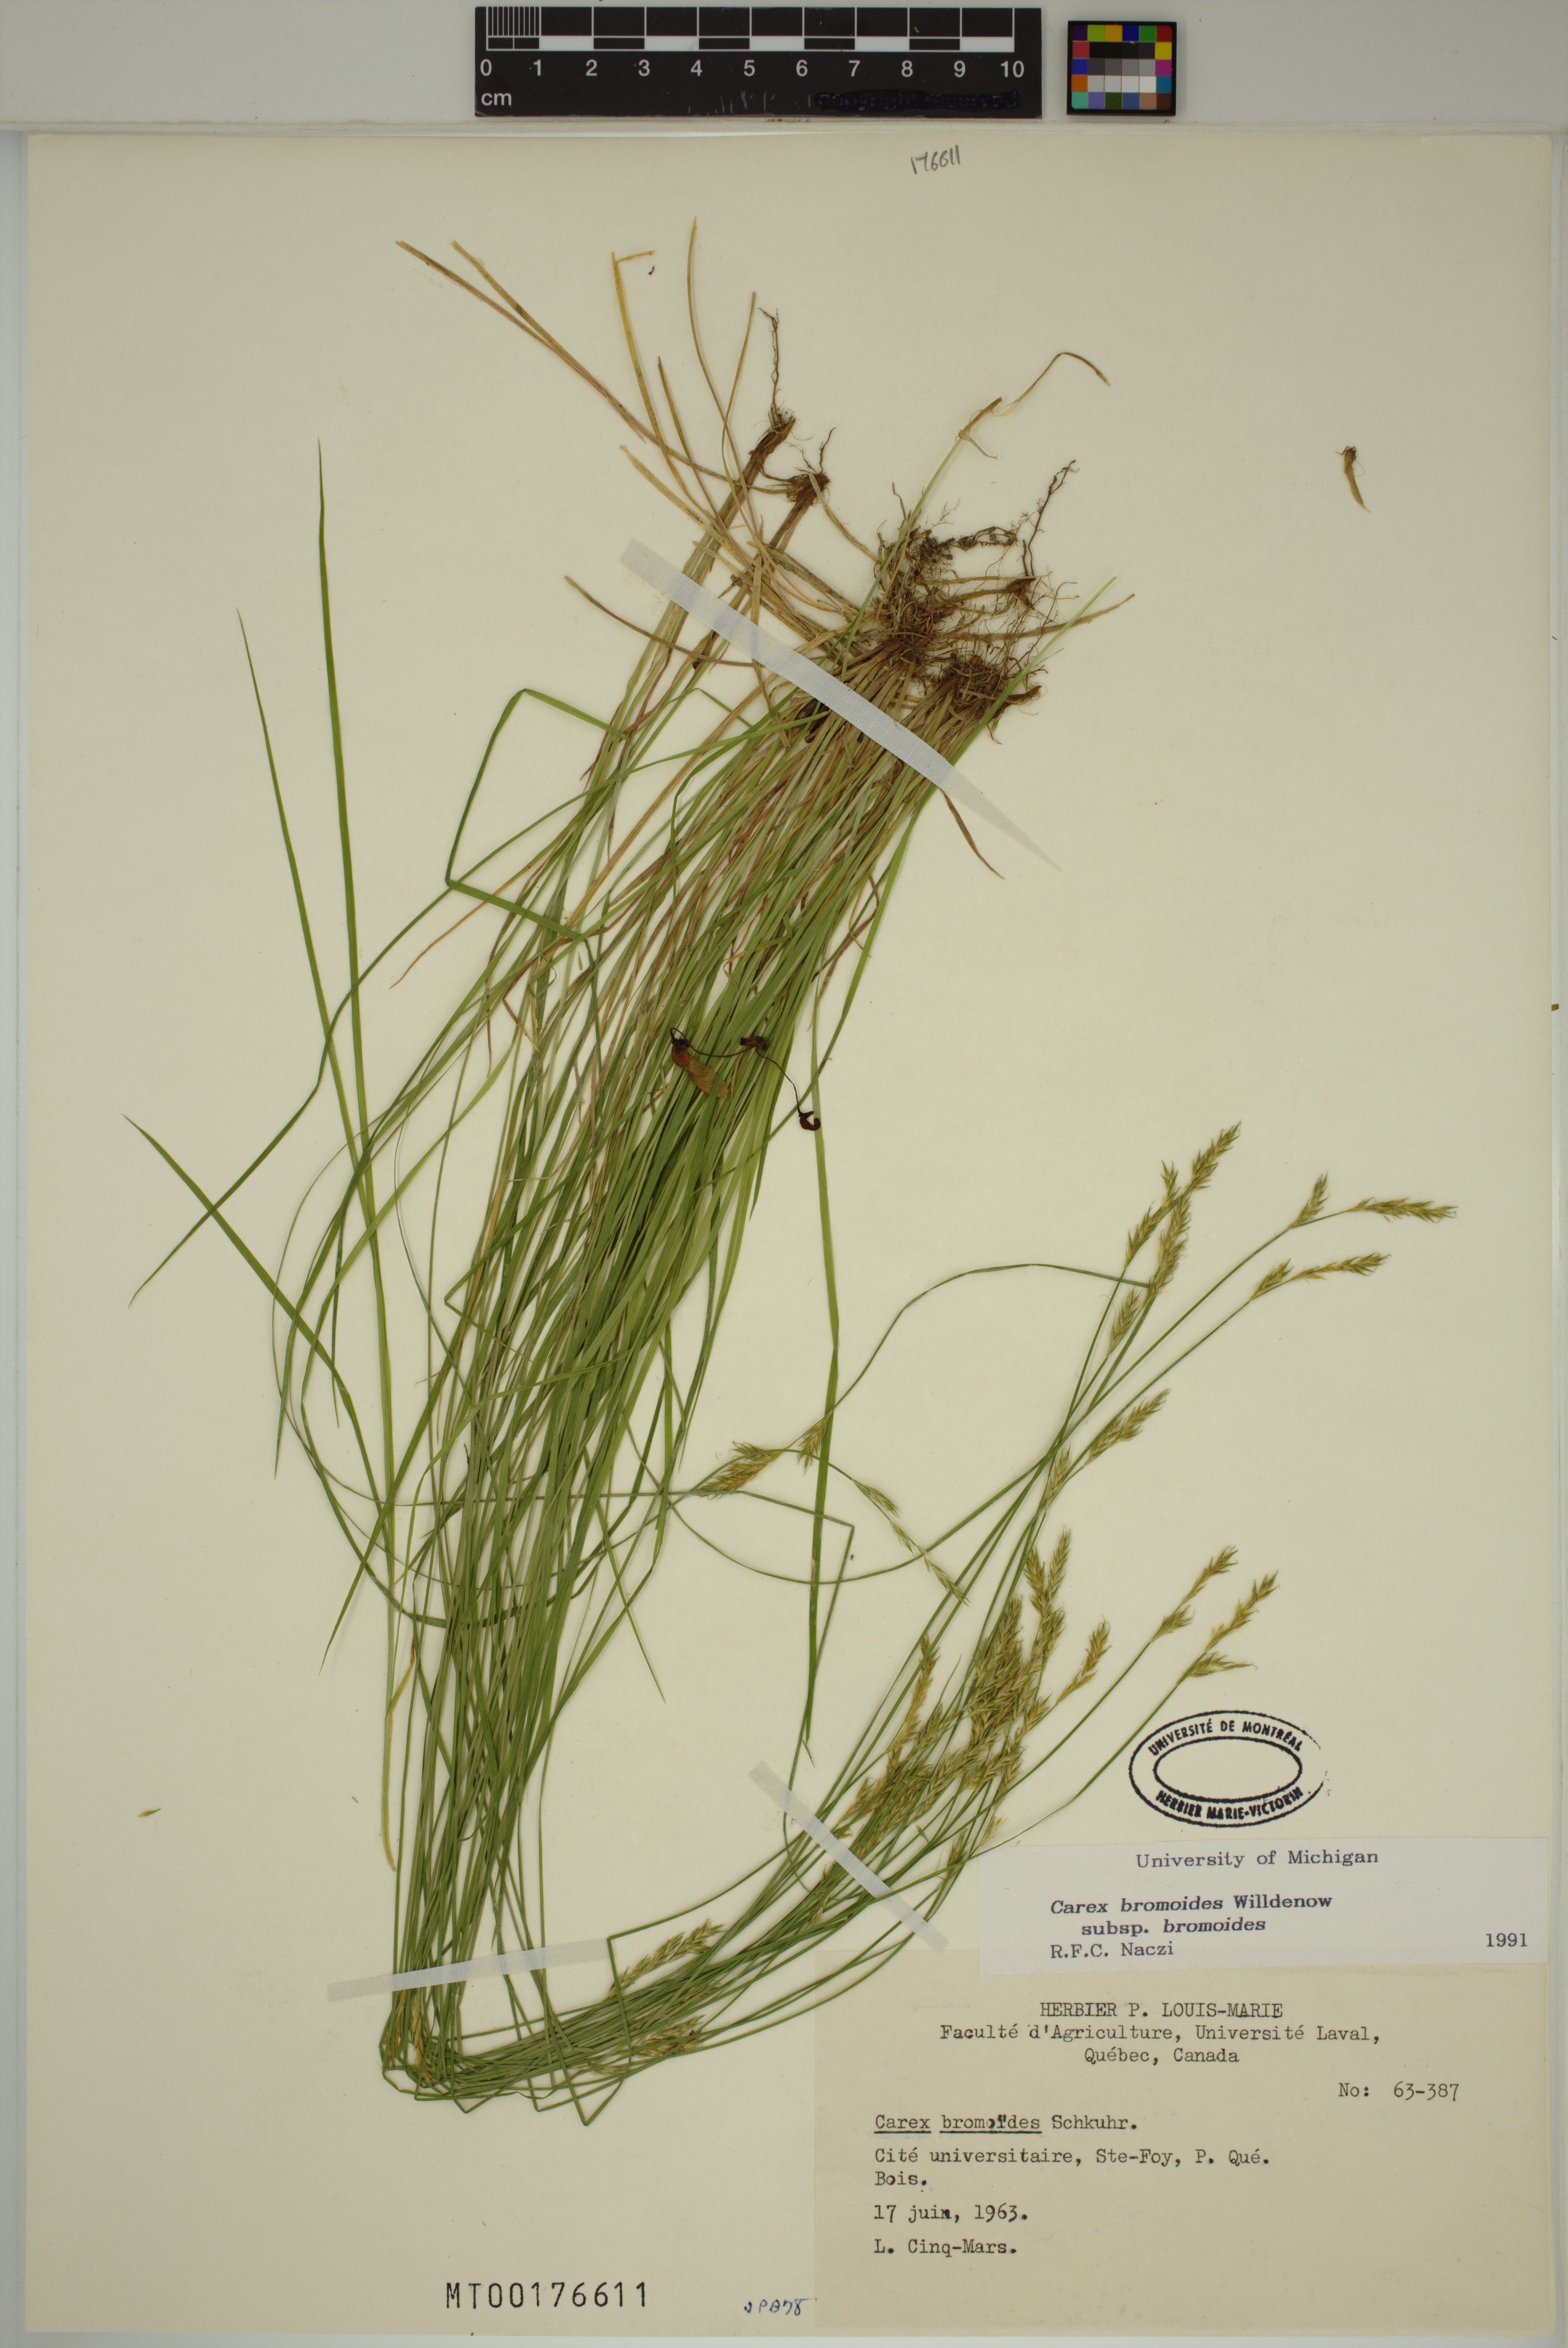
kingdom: Plantae
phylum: Tracheophyta
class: Liliopsida
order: Poales
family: Cyperaceae
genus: Carex
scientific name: Carex bromoides
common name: Brome hummock sedge
